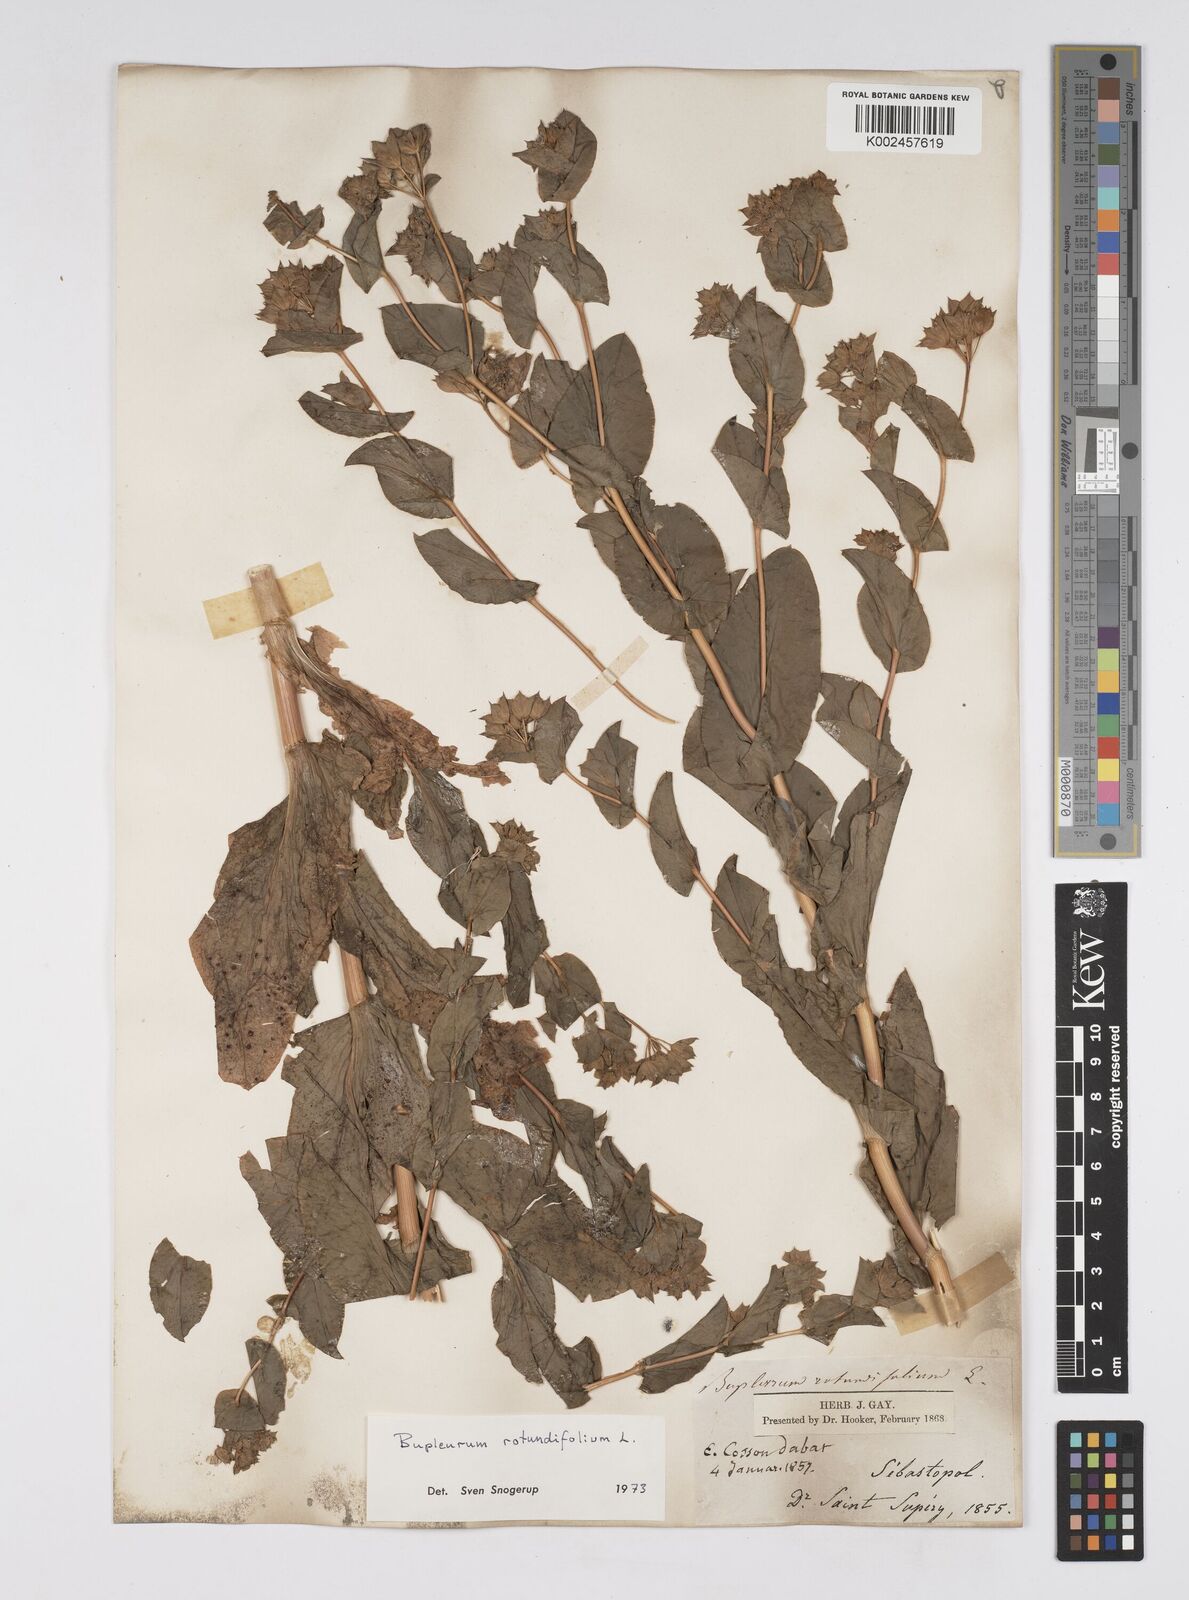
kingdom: Plantae
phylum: Tracheophyta
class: Magnoliopsida
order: Apiales
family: Apiaceae
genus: Bupleurum
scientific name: Bupleurum rotundifolium
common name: Thorow-wax
